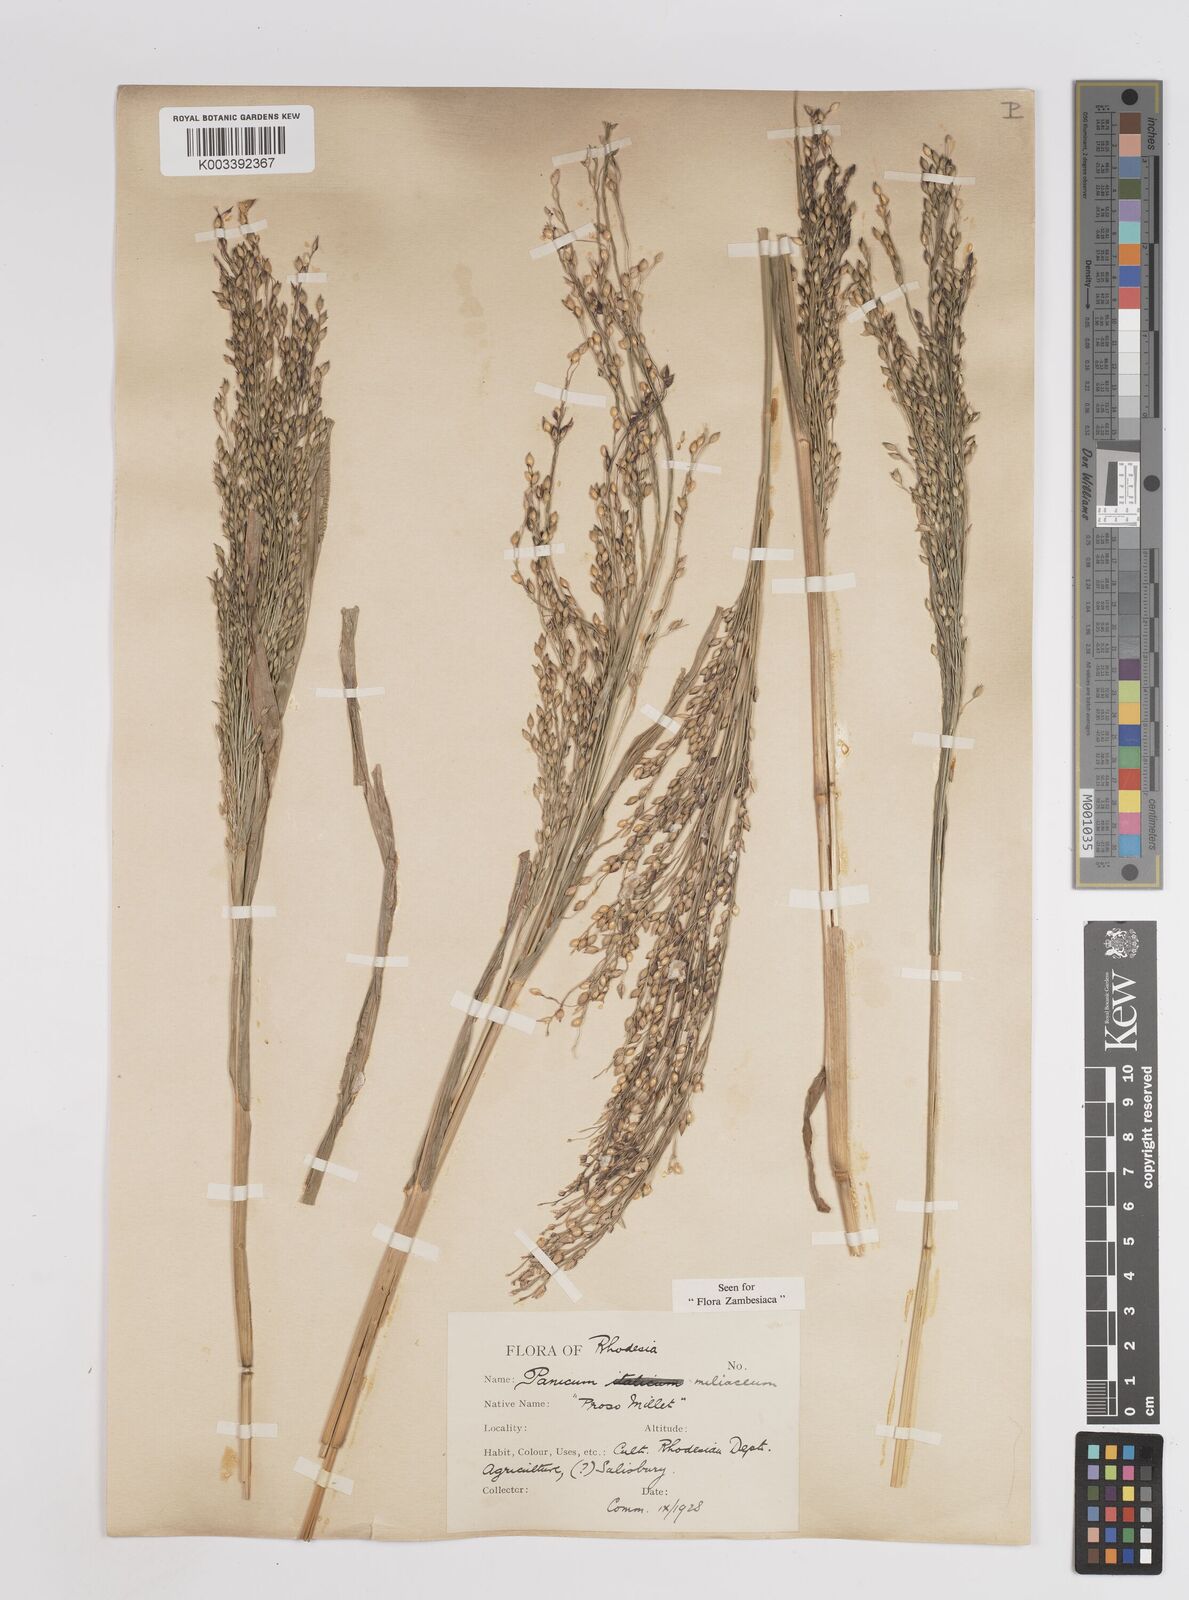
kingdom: Plantae
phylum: Tracheophyta
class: Liliopsida
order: Poales
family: Poaceae
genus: Panicum
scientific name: Panicum miliaceum
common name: Common millet
